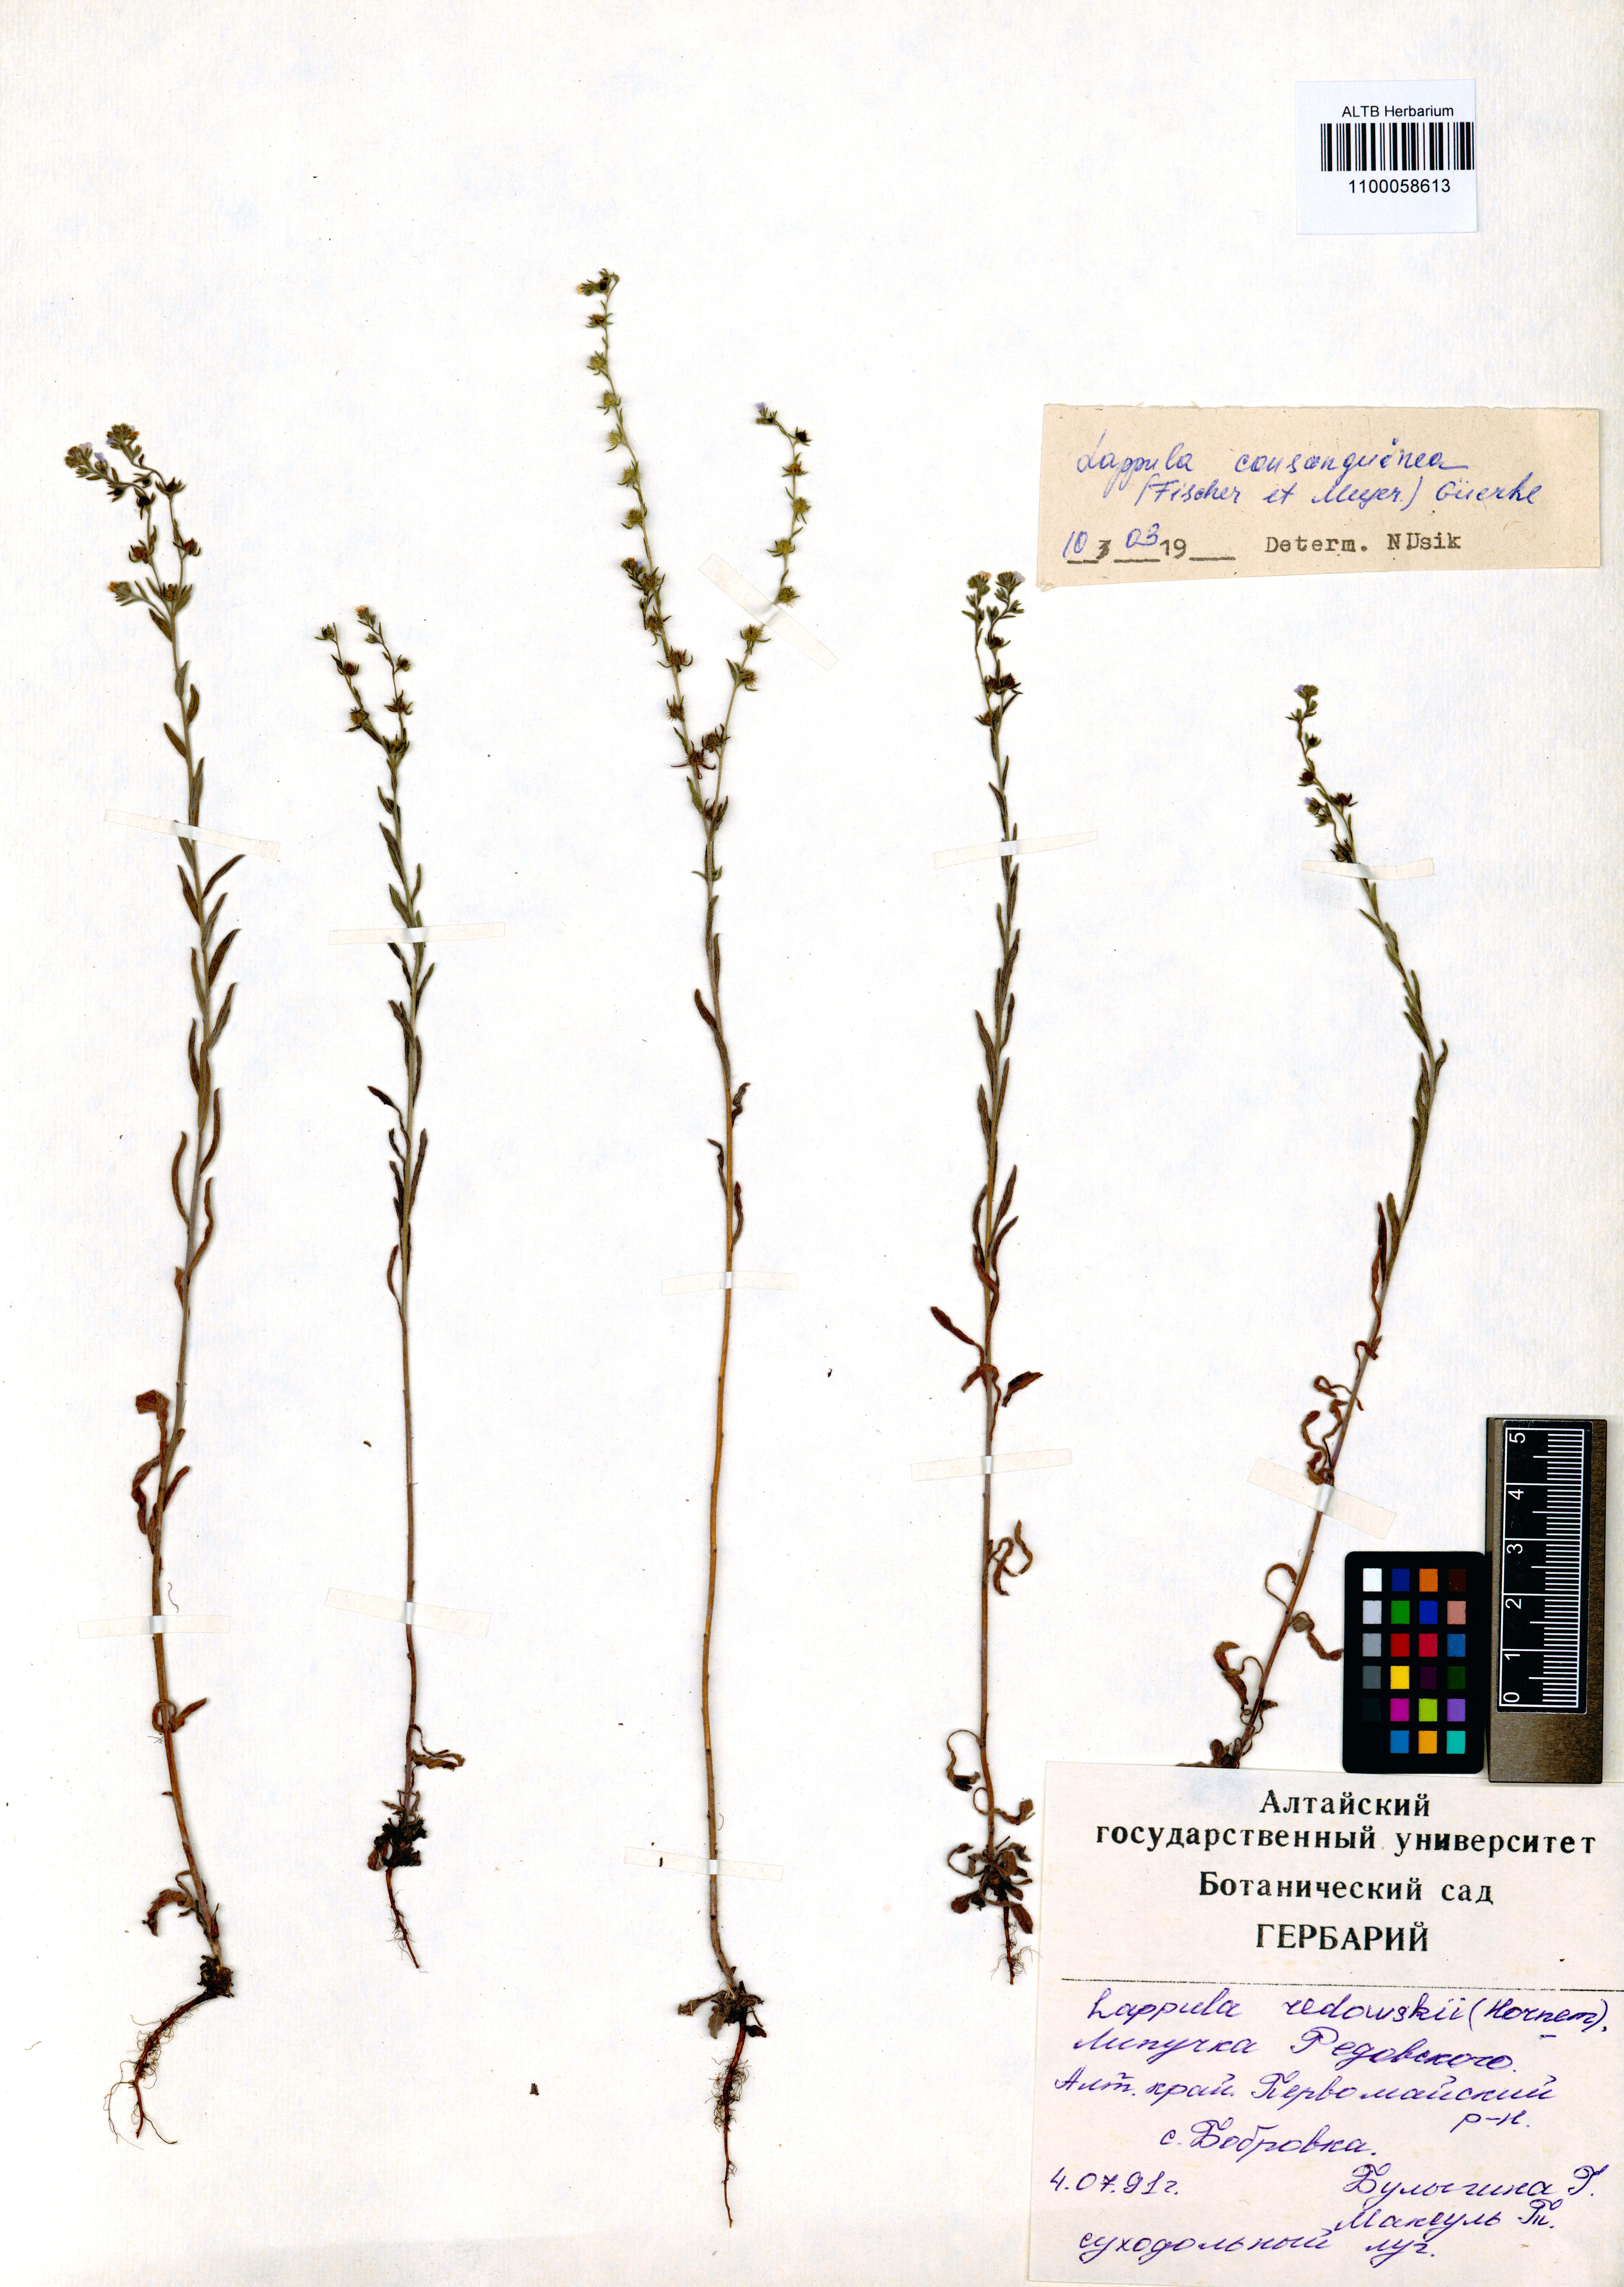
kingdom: Plantae
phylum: Tracheophyta
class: Magnoliopsida
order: Boraginales
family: Boraginaceae
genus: Lappula
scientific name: Lappula squarrosa
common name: European stickseed
